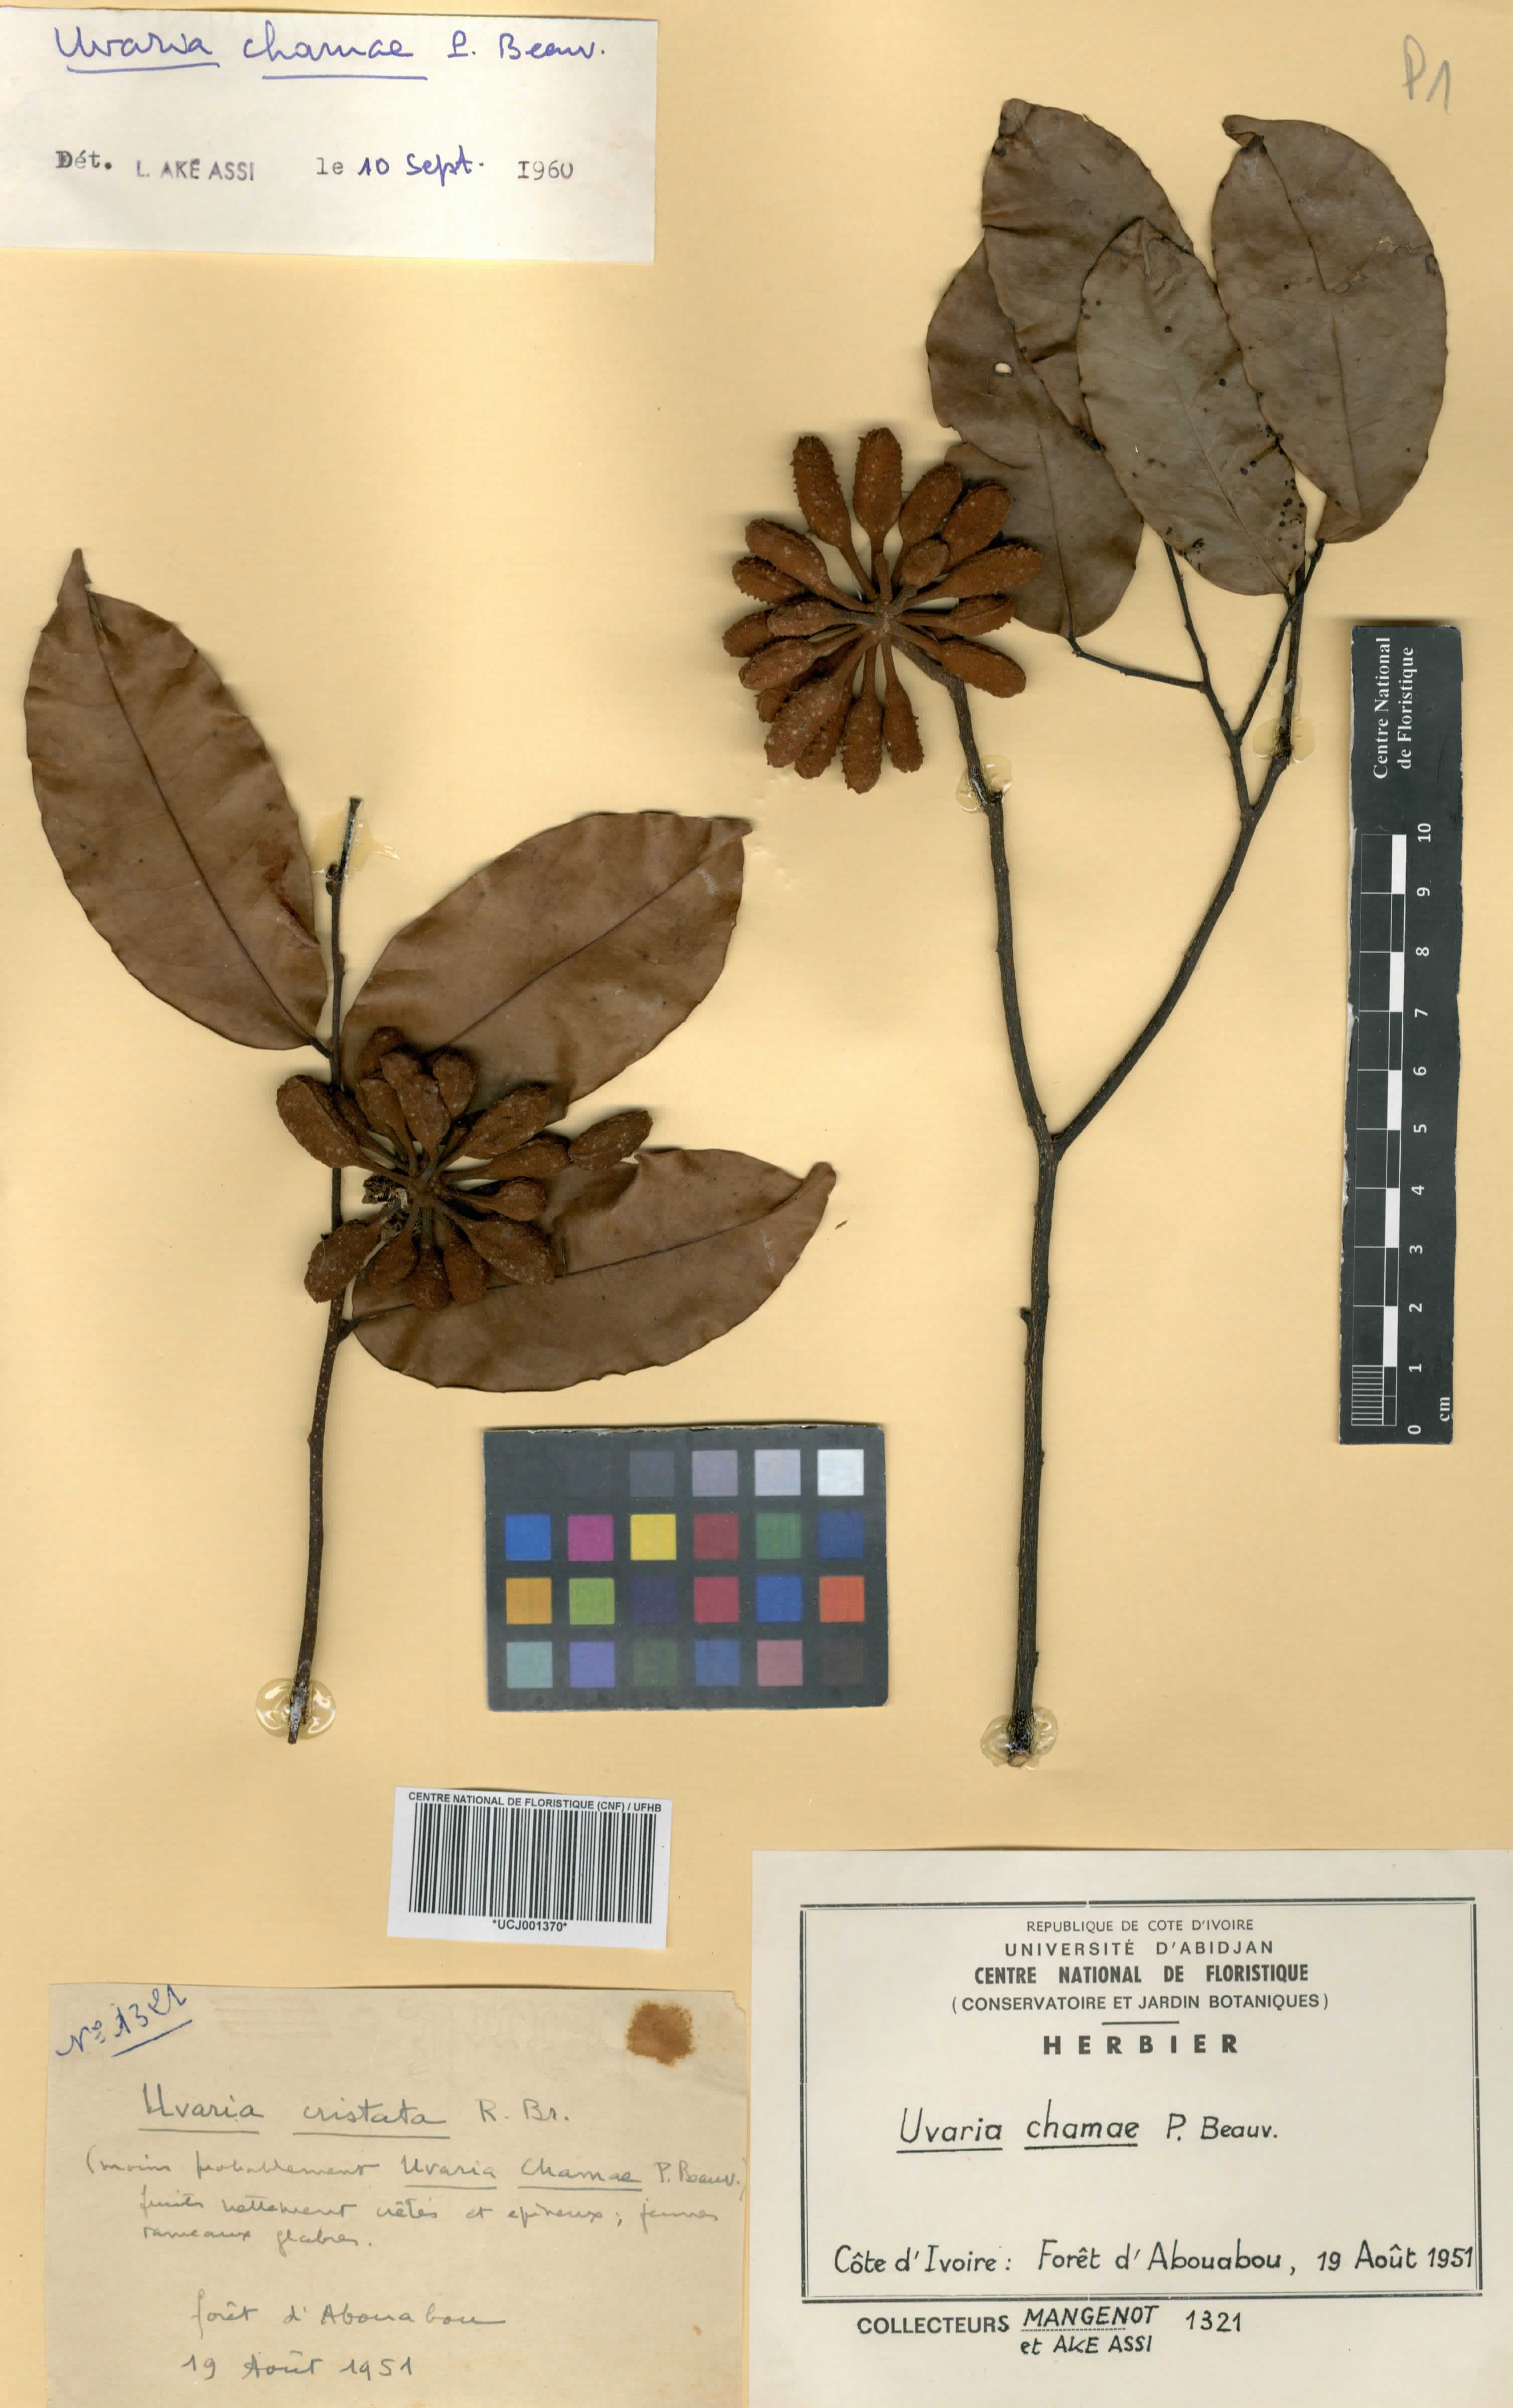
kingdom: Plantae
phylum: Tracheophyta
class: Magnoliopsida
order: Magnoliales
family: Annonaceae
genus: Uvaria
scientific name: Uvaria chamae
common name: Finger-root
